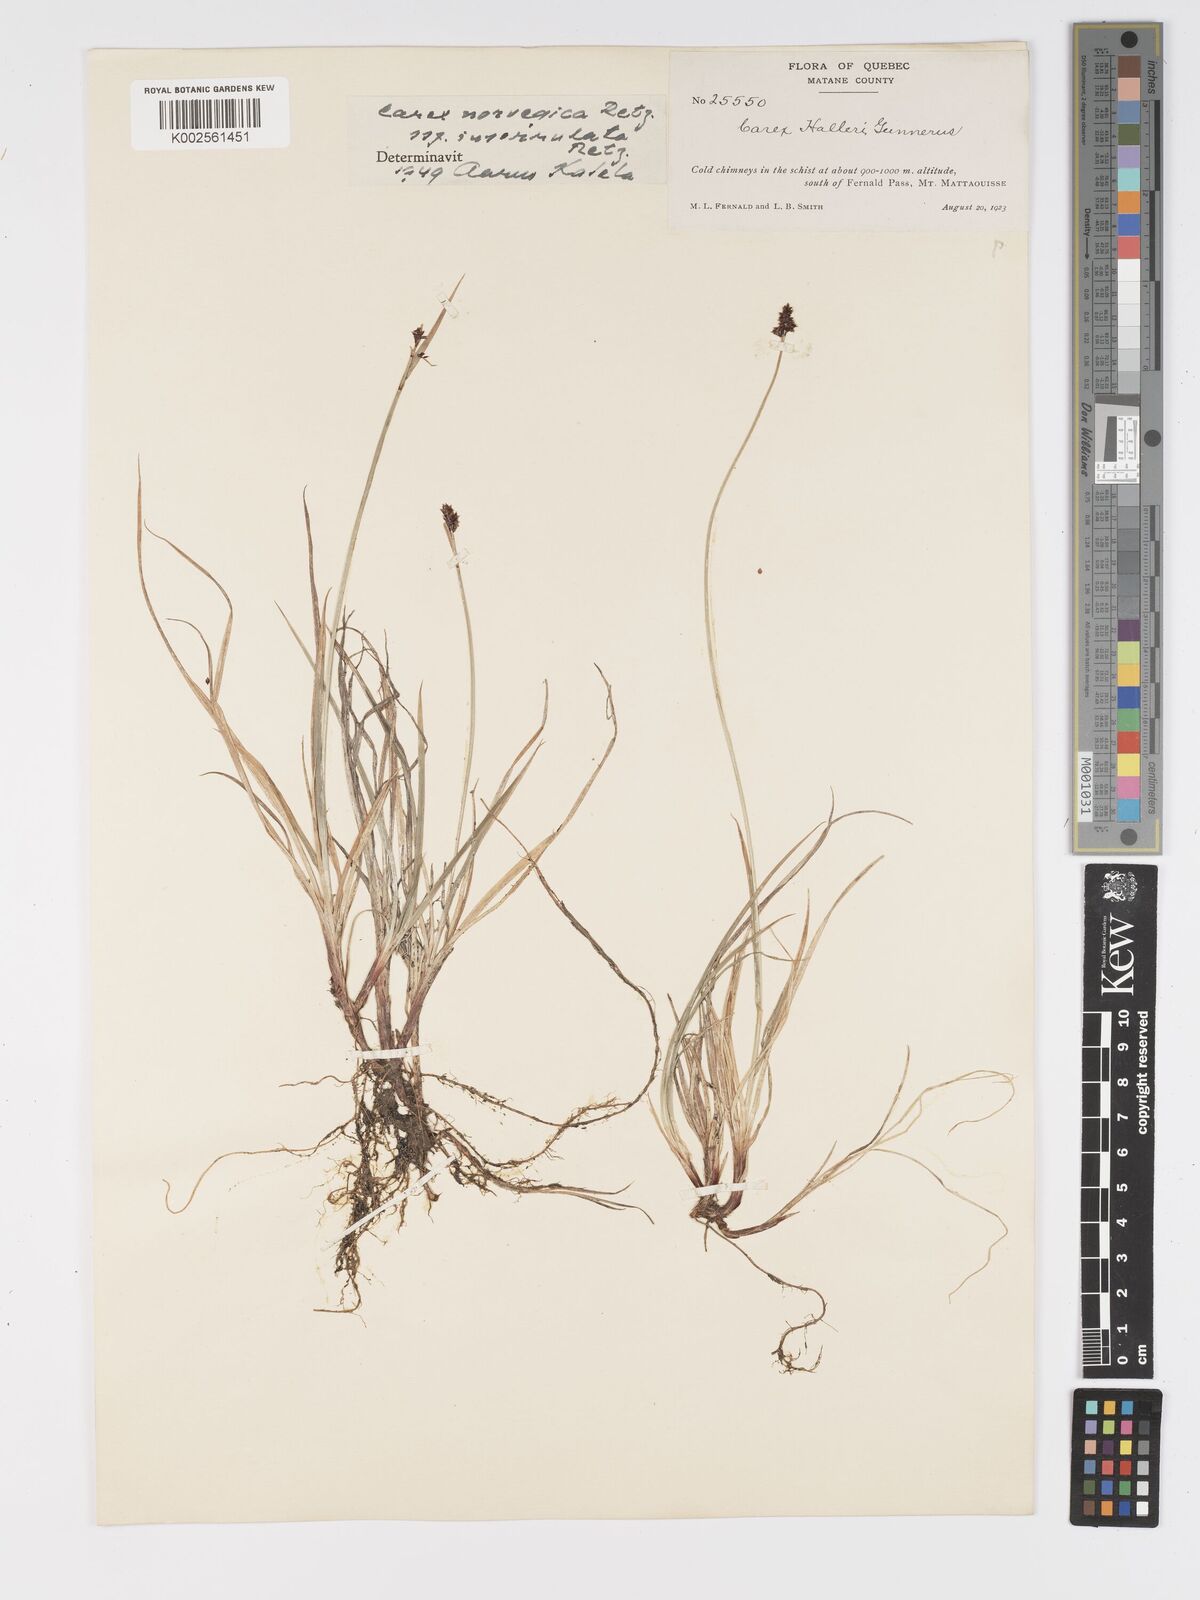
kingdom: Plantae
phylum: Tracheophyta
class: Liliopsida
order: Poales
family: Cyperaceae
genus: Carex
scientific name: Carex norvegica
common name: Close-headed alpine-sedge
